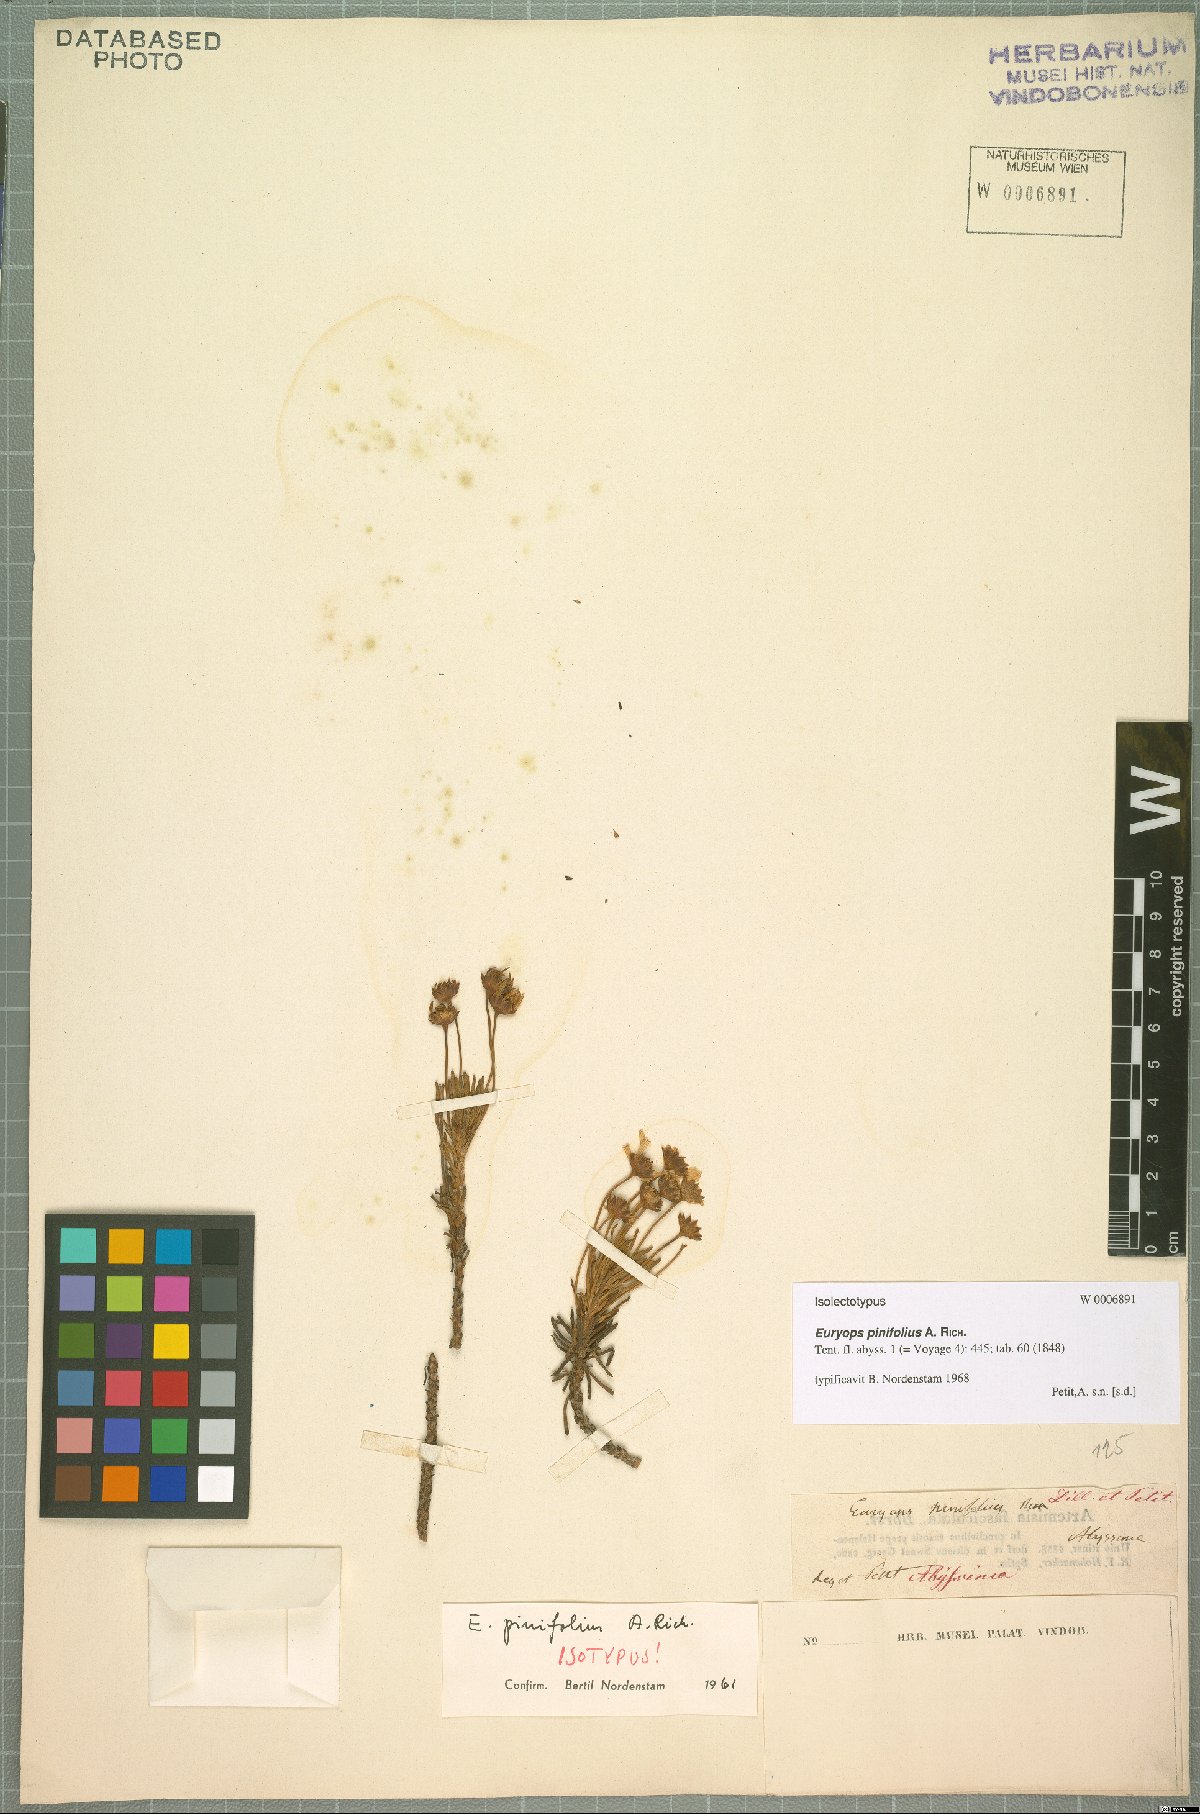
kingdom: Plantae
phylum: Tracheophyta
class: Magnoliopsida
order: Asterales
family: Asteraceae
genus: Euryops
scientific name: Euryops pinifolius
